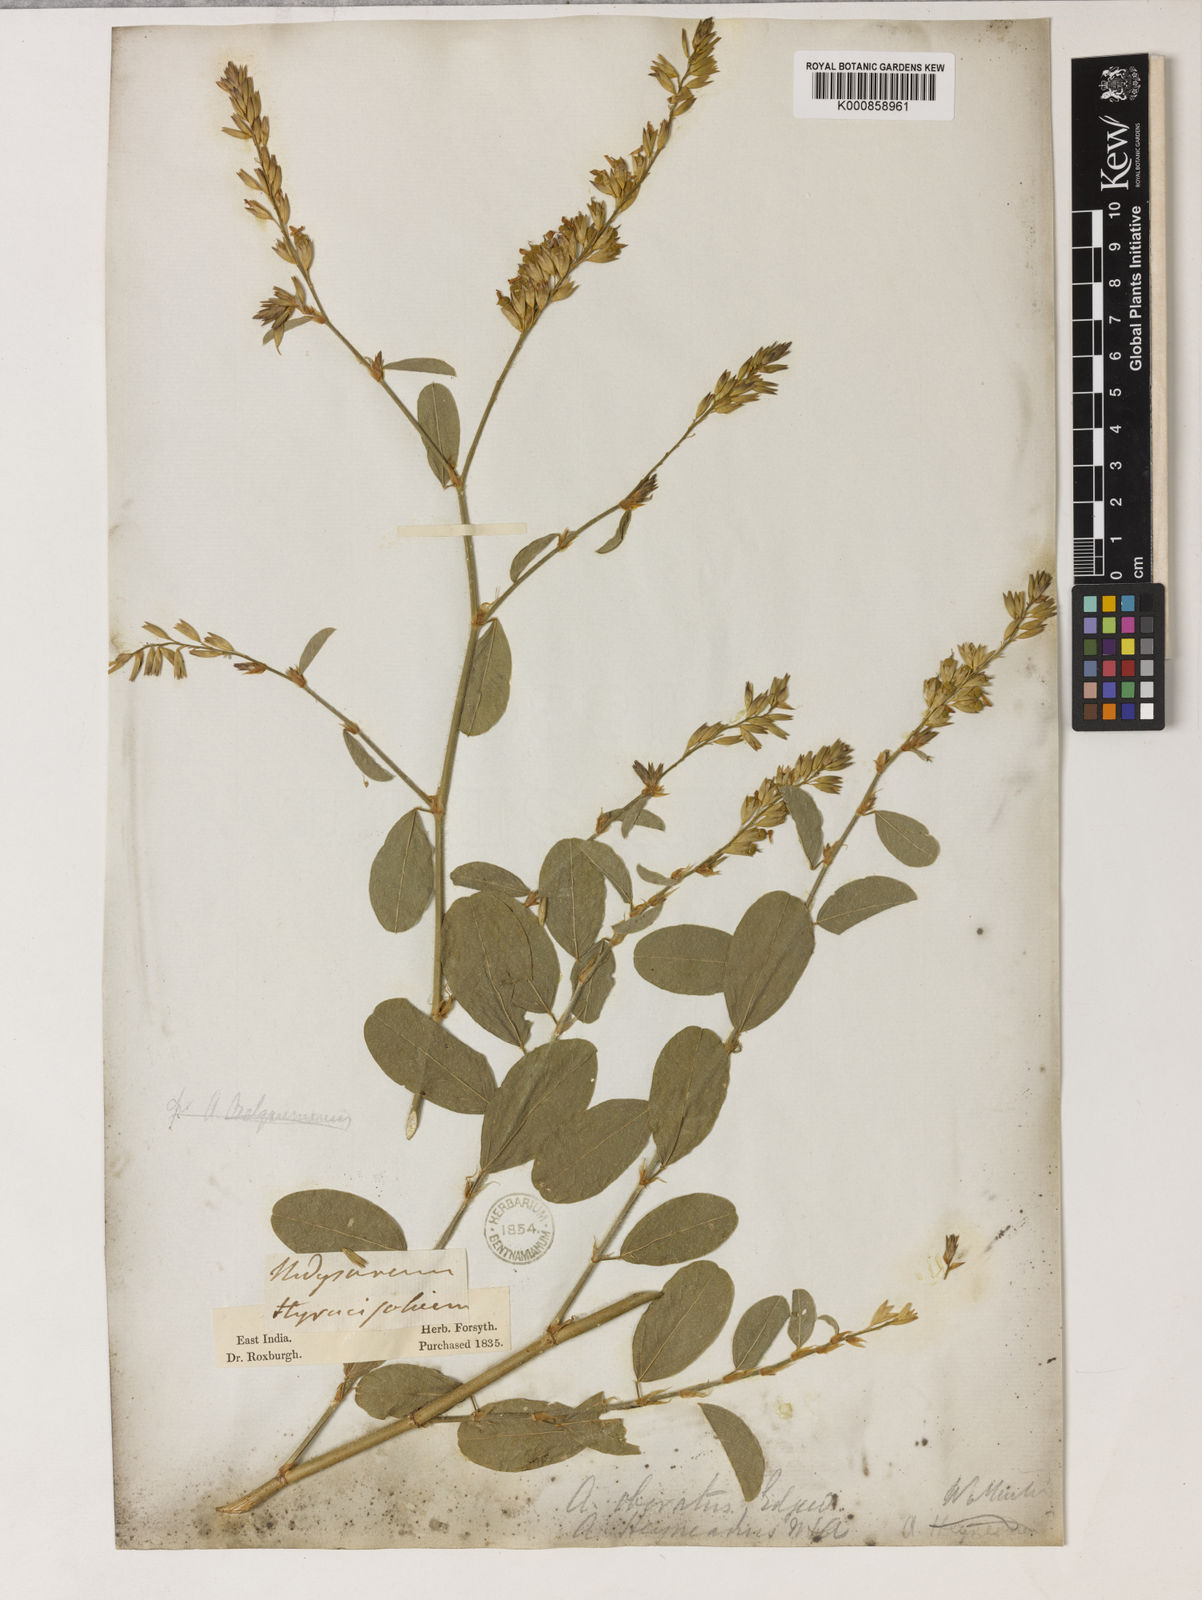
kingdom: Plantae
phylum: Tracheophyta
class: Magnoliopsida
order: Fabales
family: Fabaceae
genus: Alysicarpus
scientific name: Alysicarpus heyneanus
